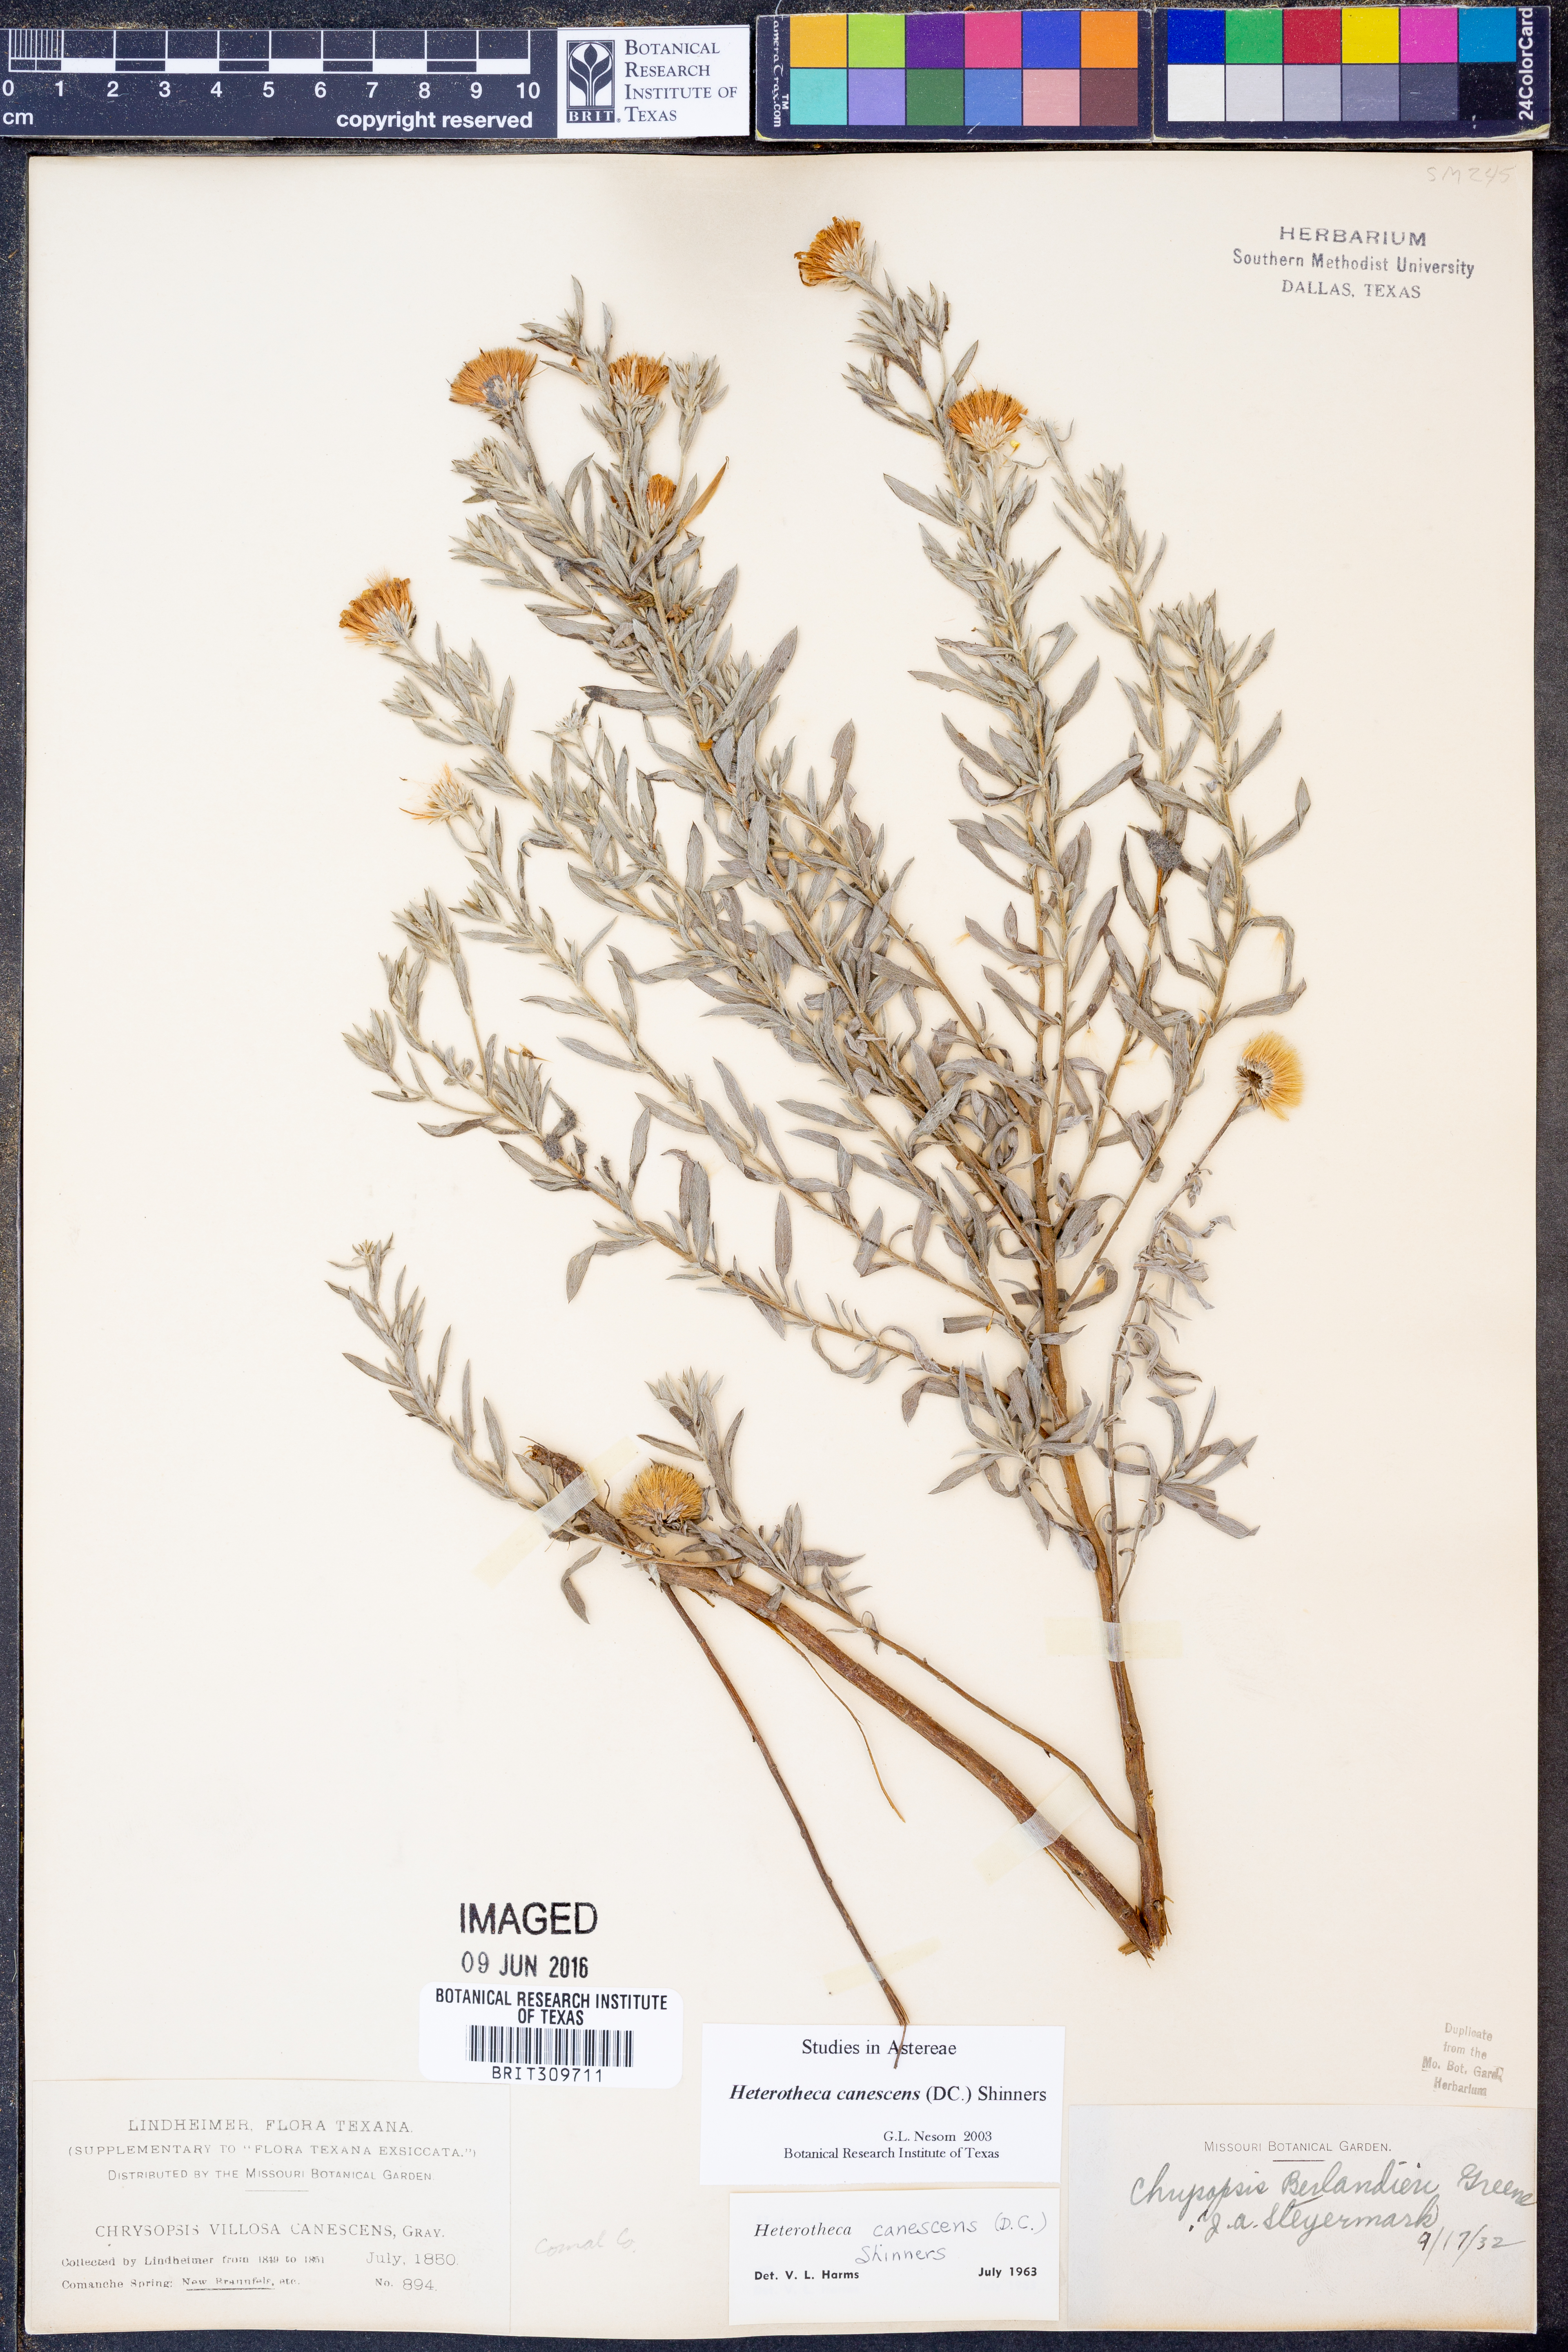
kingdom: Plantae
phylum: Tracheophyta
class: Magnoliopsida
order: Asterales
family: Asteraceae
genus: Heterotheca
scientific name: Heterotheca canescens
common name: Hoary golden-aster
